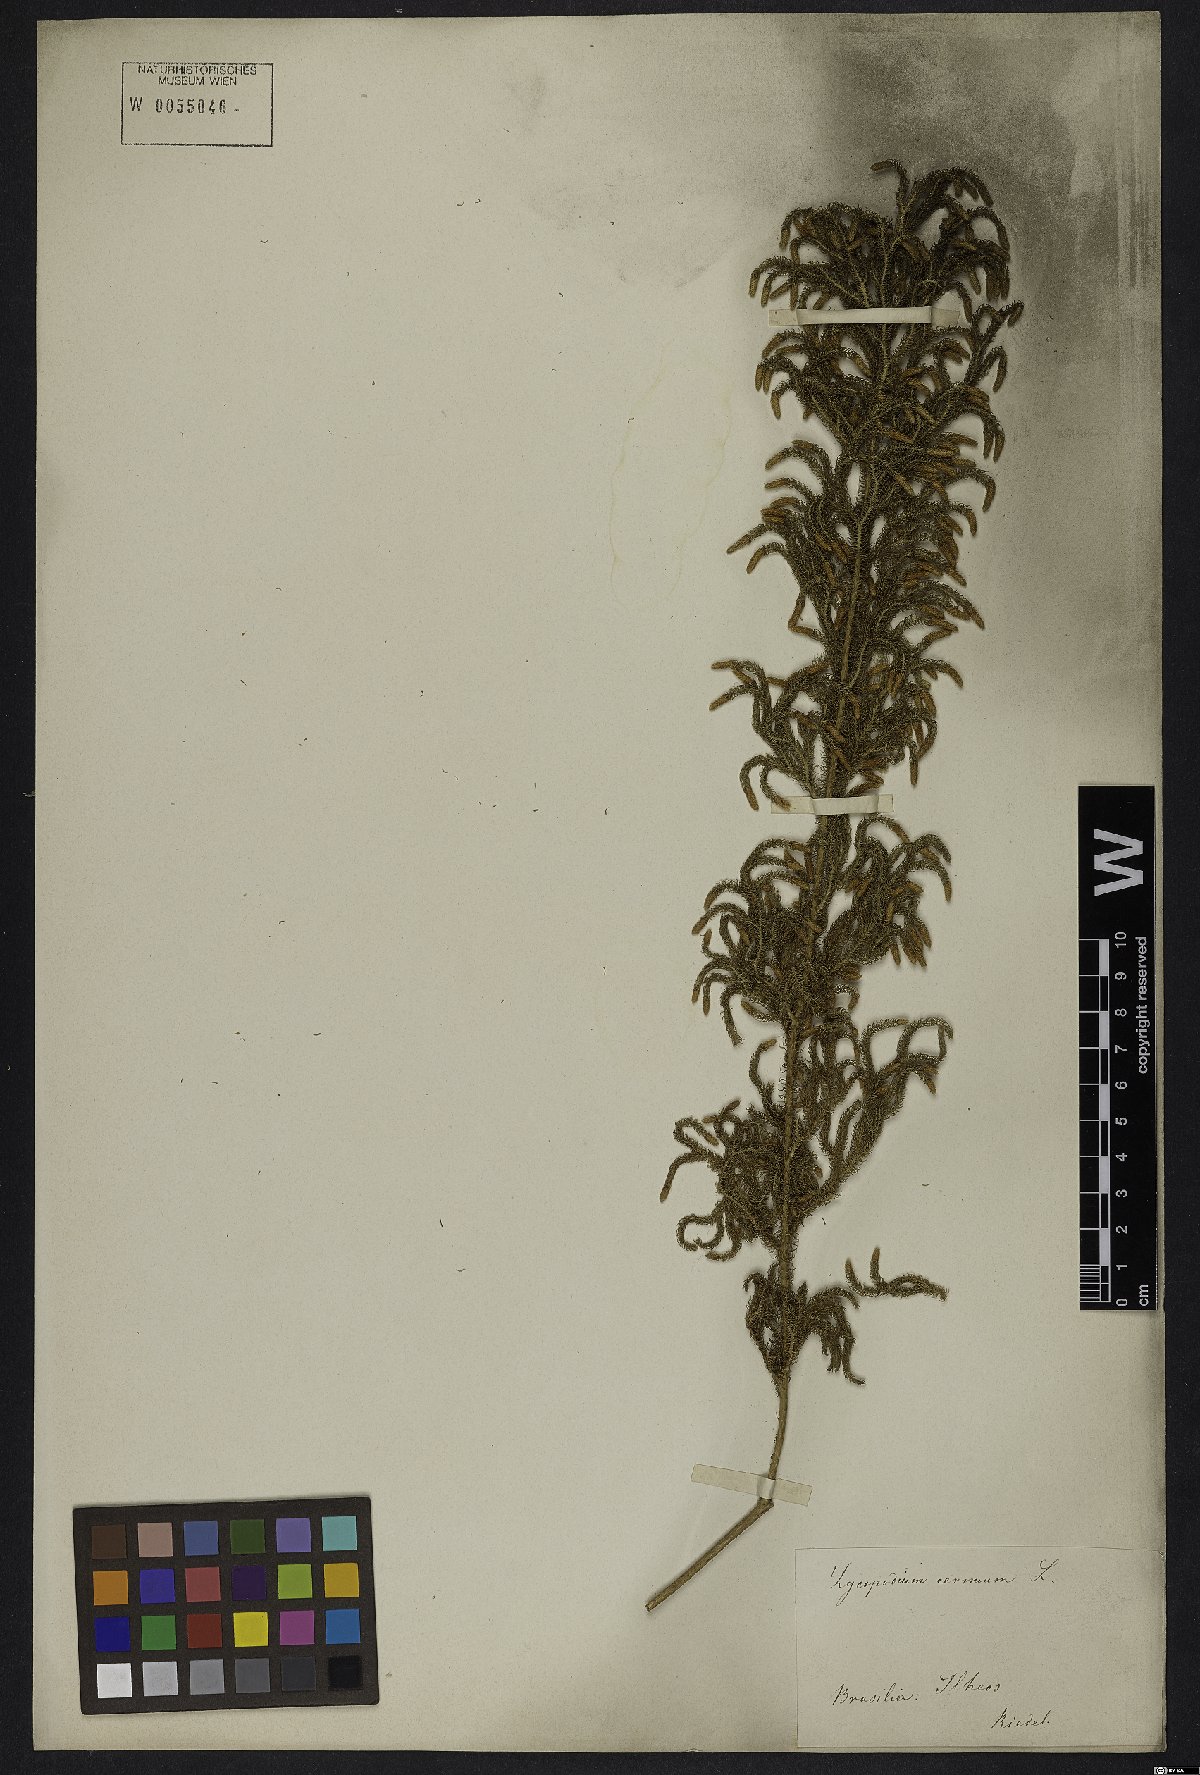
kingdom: Plantae
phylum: Tracheophyta
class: Lycopodiopsida
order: Lycopodiales
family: Lycopodiaceae
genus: Palhinhaea
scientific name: Palhinhaea cernua
